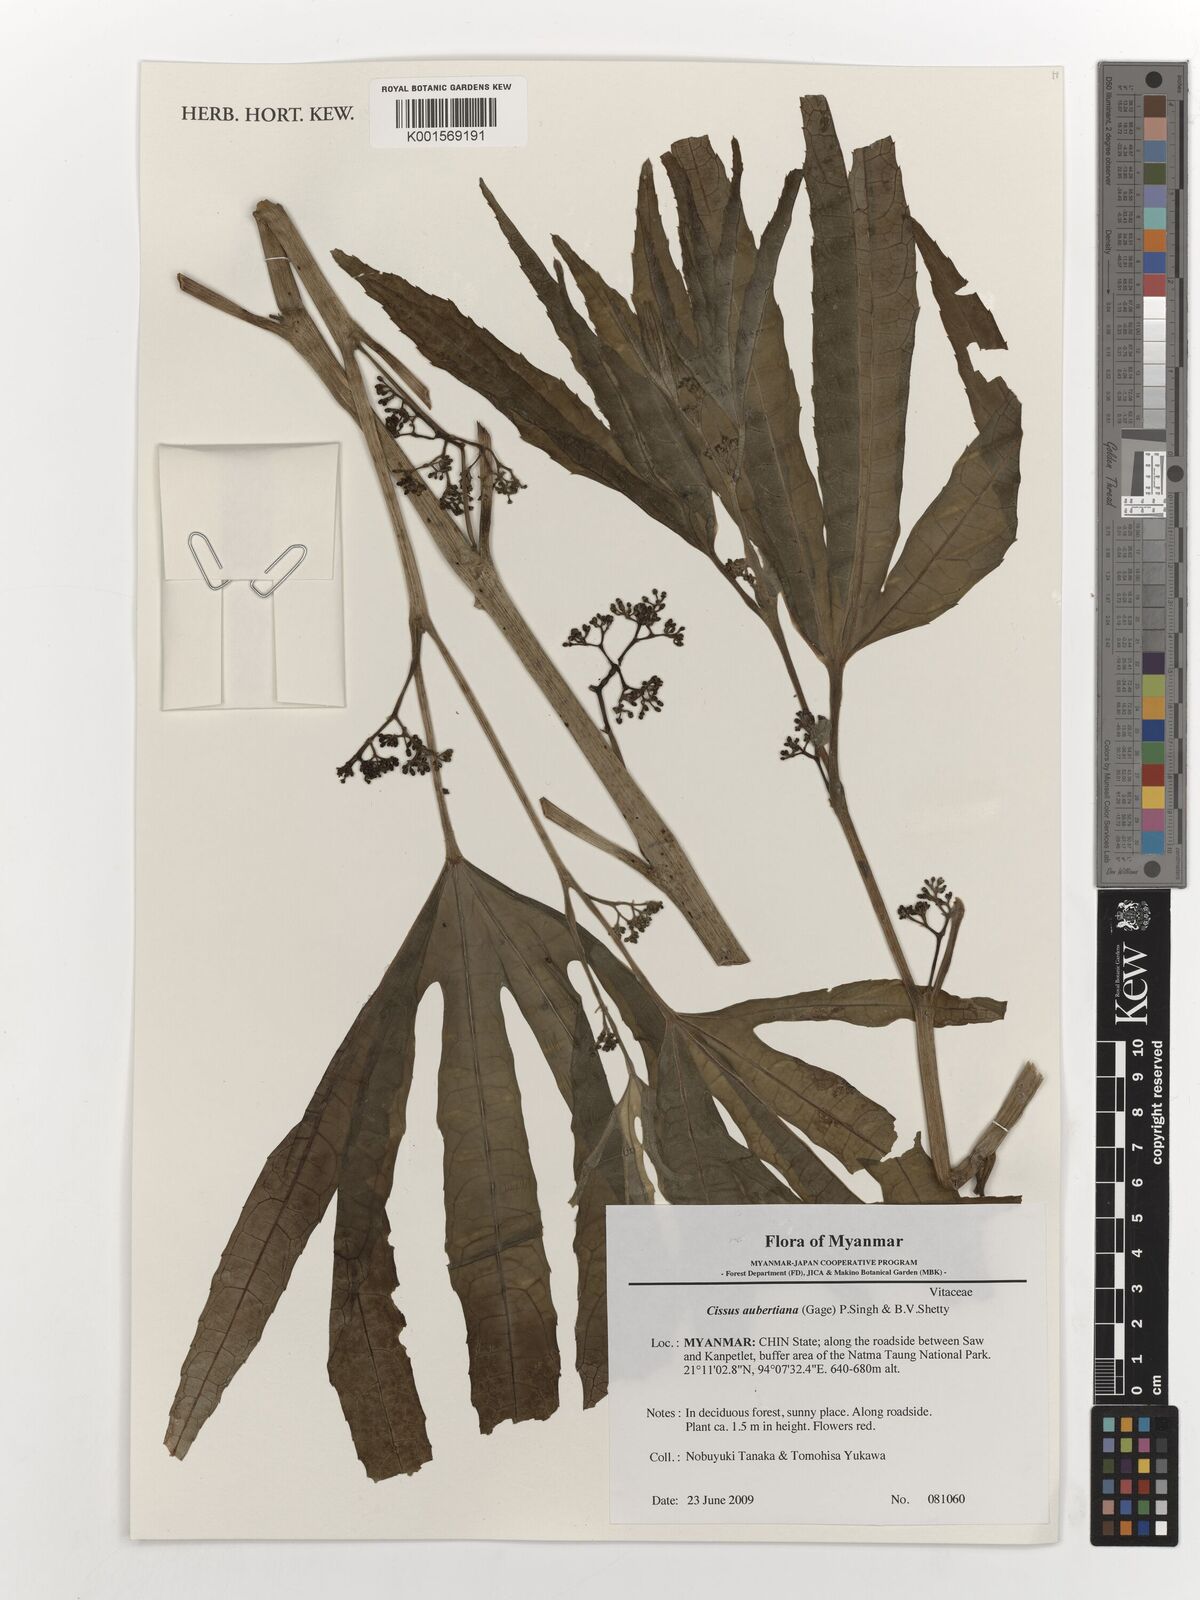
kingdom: Plantae
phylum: Tracheophyta
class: Magnoliopsida
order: Vitales
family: Vitaceae
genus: Cissus
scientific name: Cissus aubertiana
